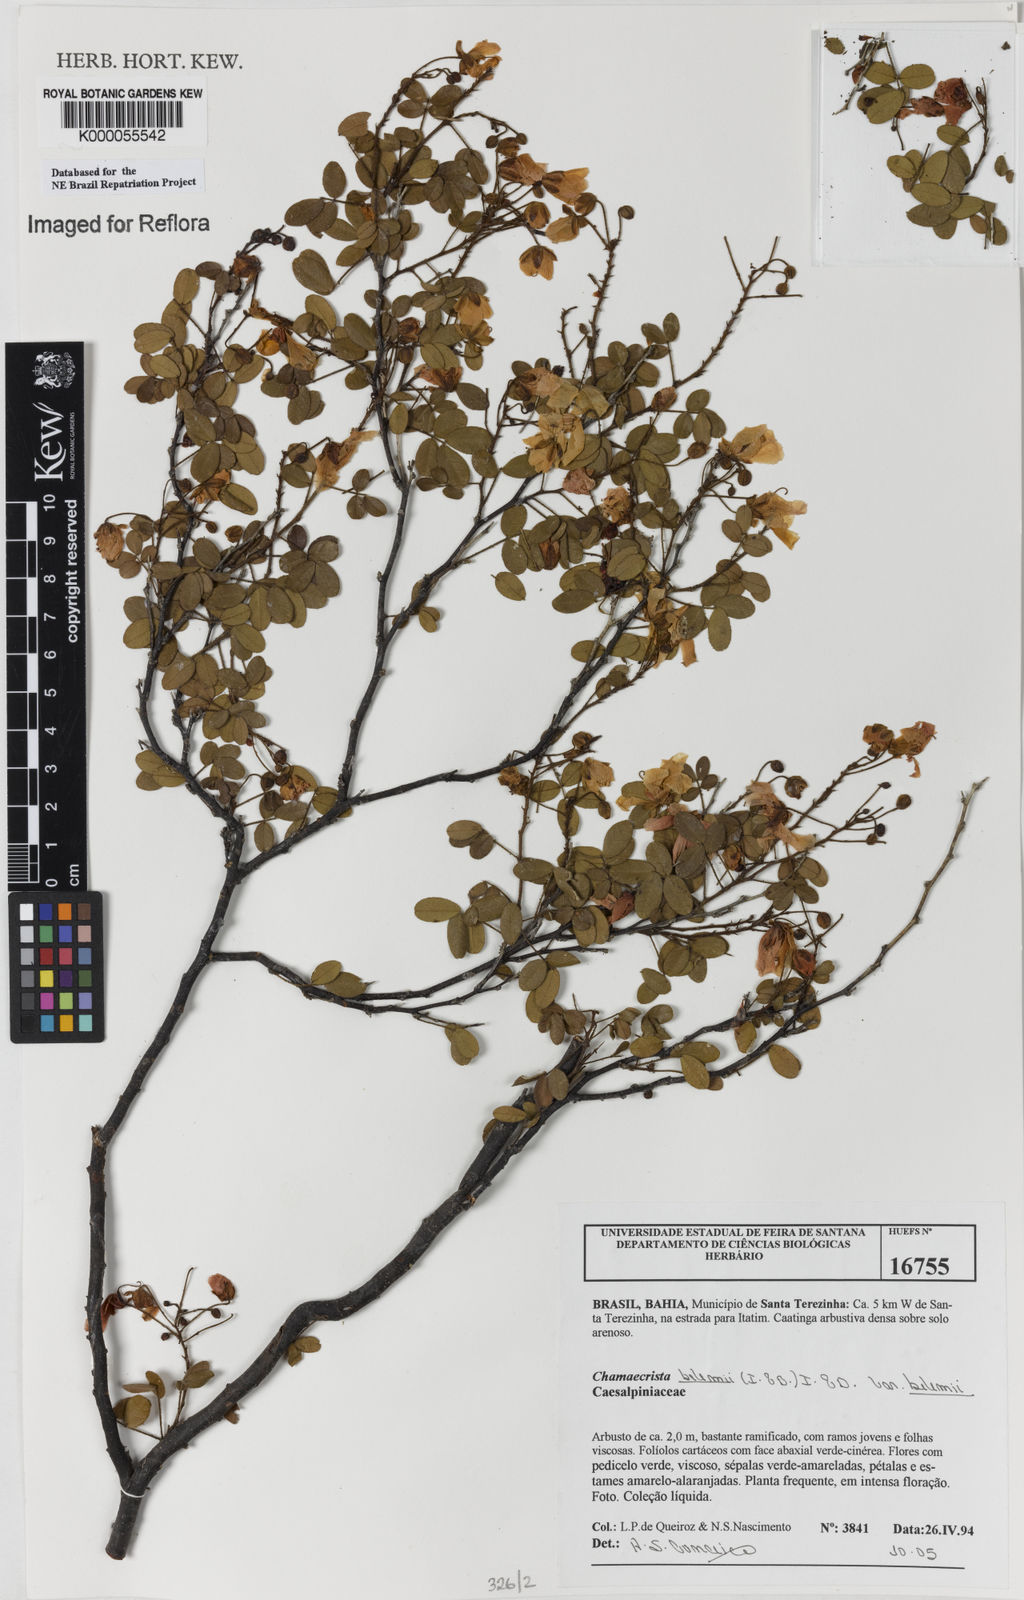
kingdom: Plantae
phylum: Tracheophyta
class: Magnoliopsida
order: Fabales
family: Fabaceae
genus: Chamaecrista
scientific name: Chamaecrista
